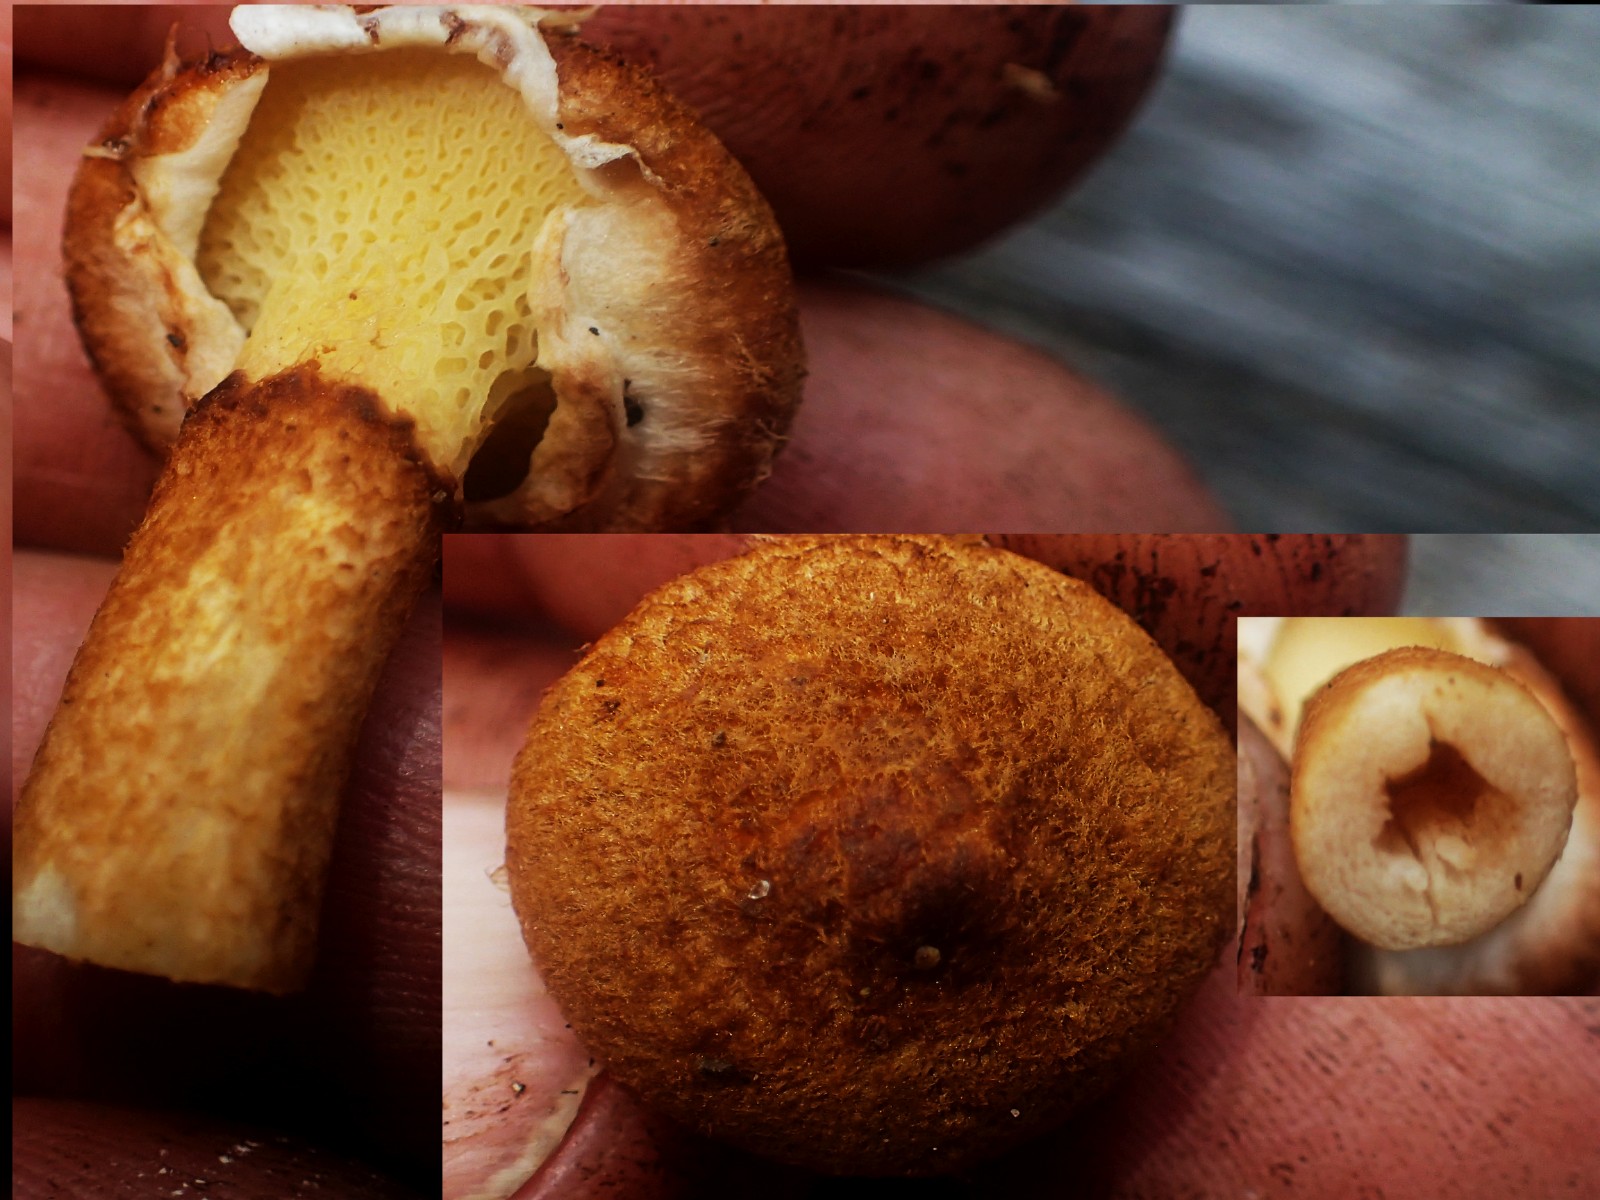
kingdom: Fungi
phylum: Basidiomycota
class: Agaricomycetes
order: Boletales
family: Suillaceae
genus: Suillus
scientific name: Suillus cavipes
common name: hulstokket slimrørhat
